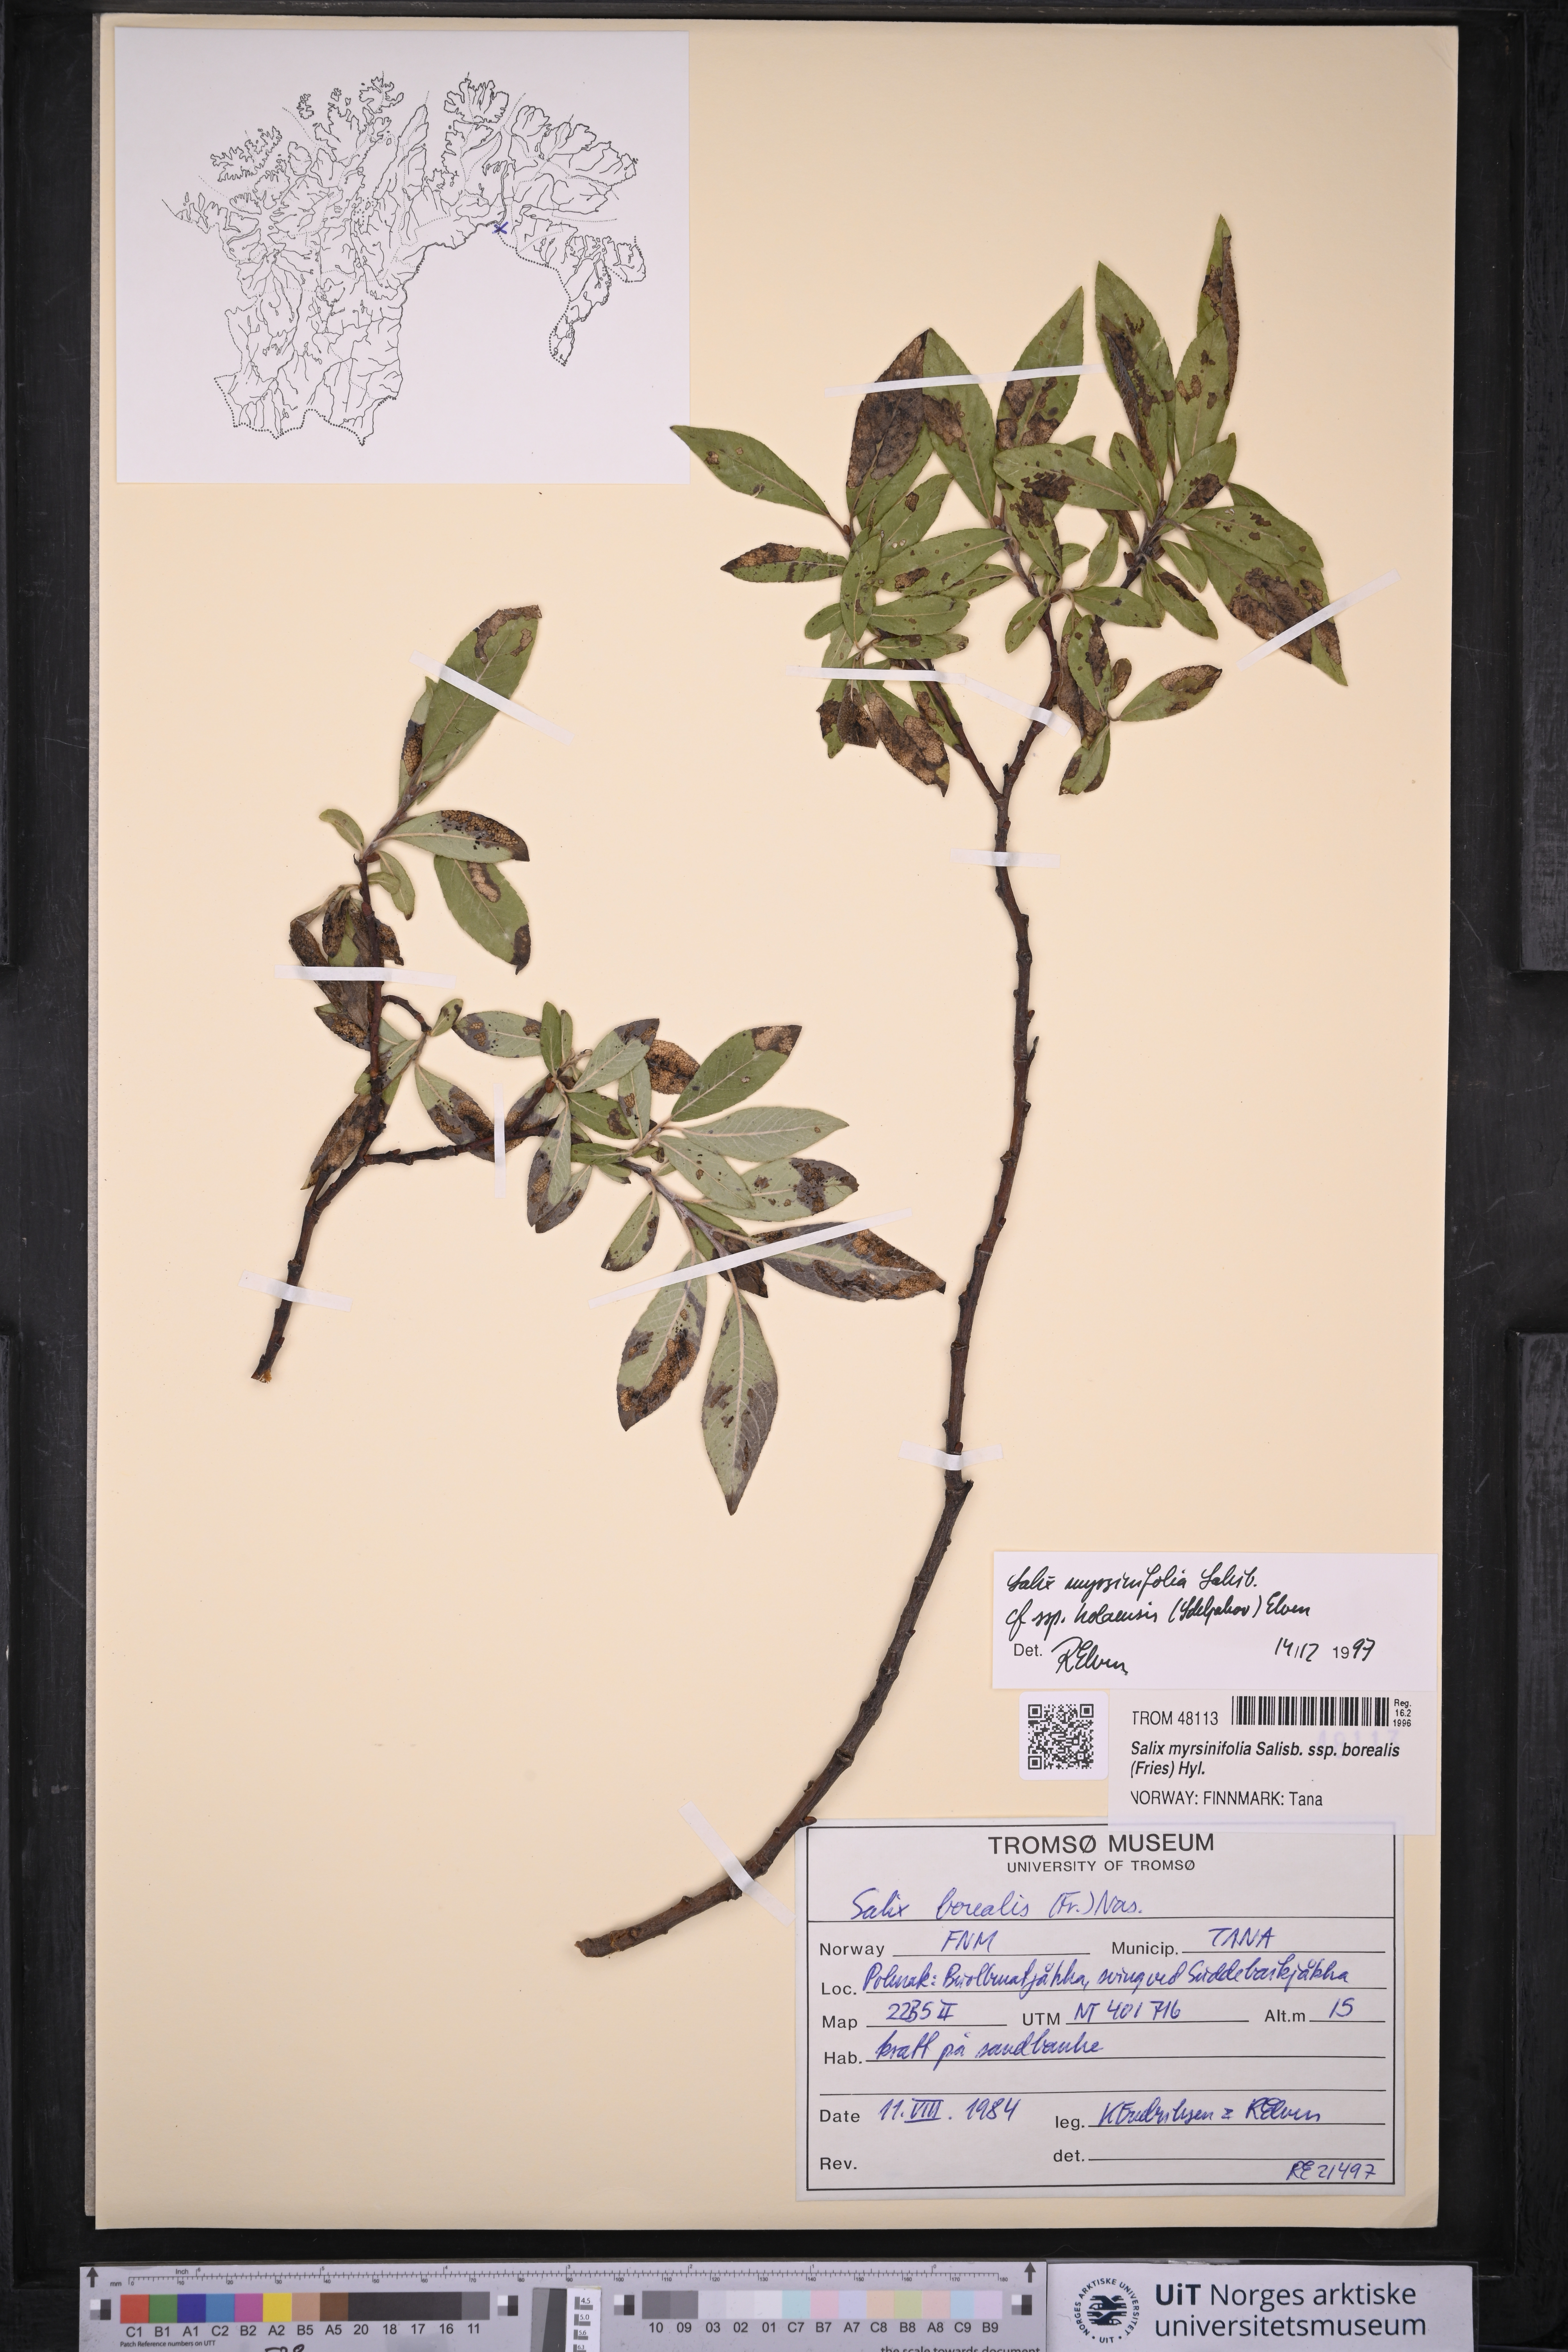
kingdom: Plantae
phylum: Tracheophyta
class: Magnoliopsida
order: Malpighiales
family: Salicaceae
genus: Salix
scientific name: Salix myrsinifolia
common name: Dark-leaved willow
